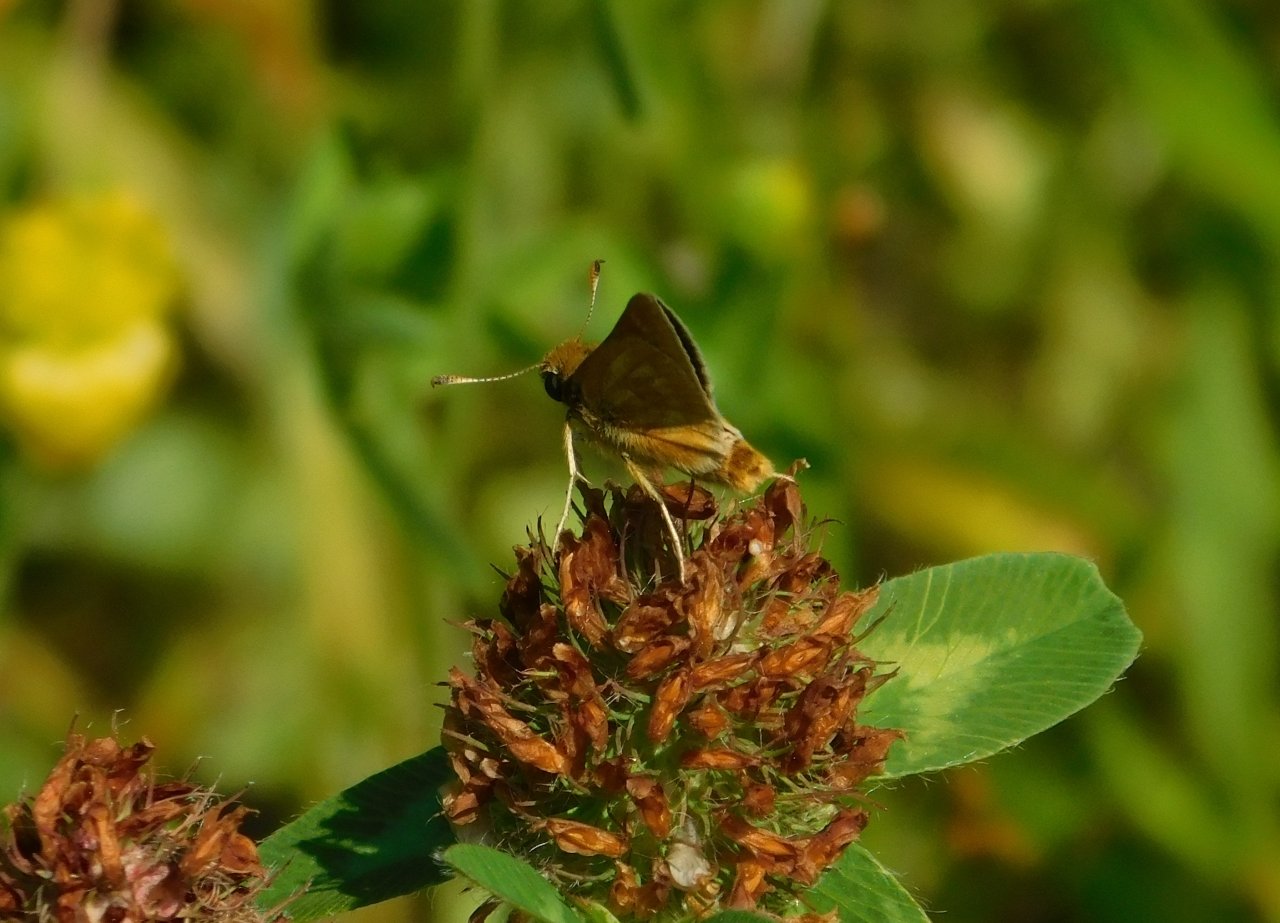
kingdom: Animalia
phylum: Arthropoda
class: Insecta
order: Lepidoptera
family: Hesperiidae
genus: Polites
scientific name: Polites
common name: Long Dash Skipper
